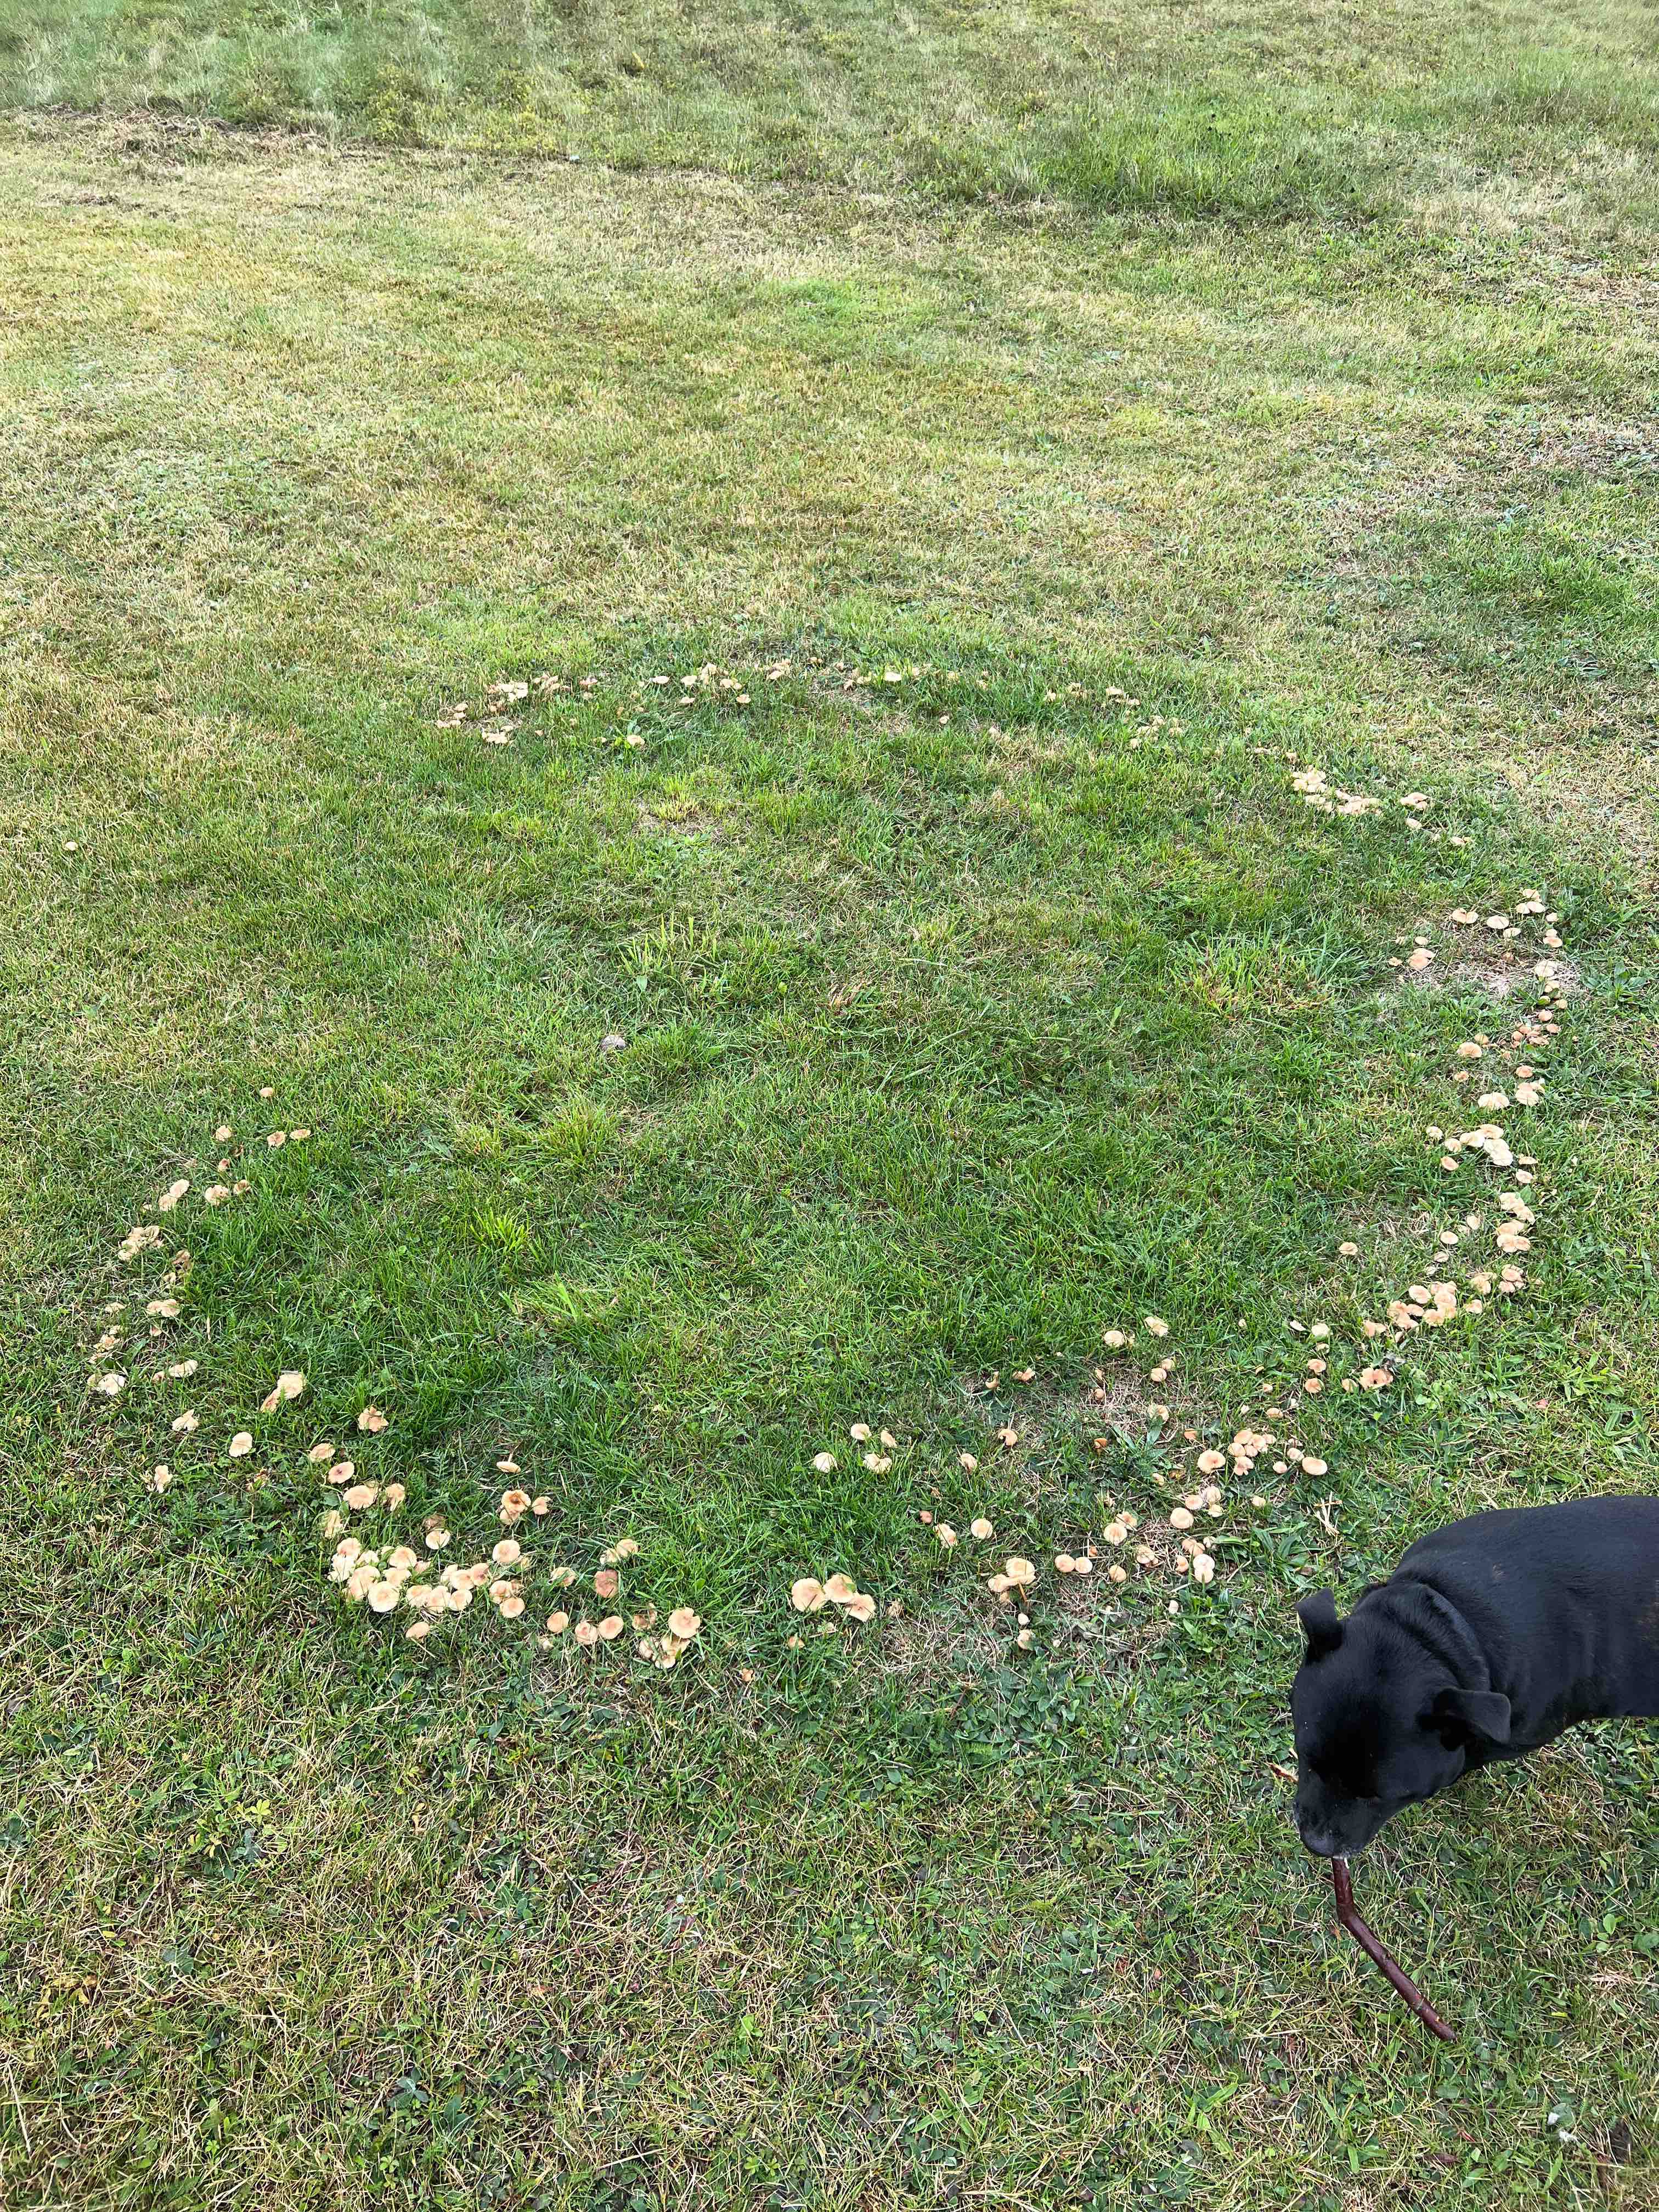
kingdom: Fungi
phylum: Basidiomycota
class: Agaricomycetes
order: Agaricales
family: Marasmiaceae
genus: Marasmius
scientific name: Marasmius oreades
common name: elledans-bruskhat
